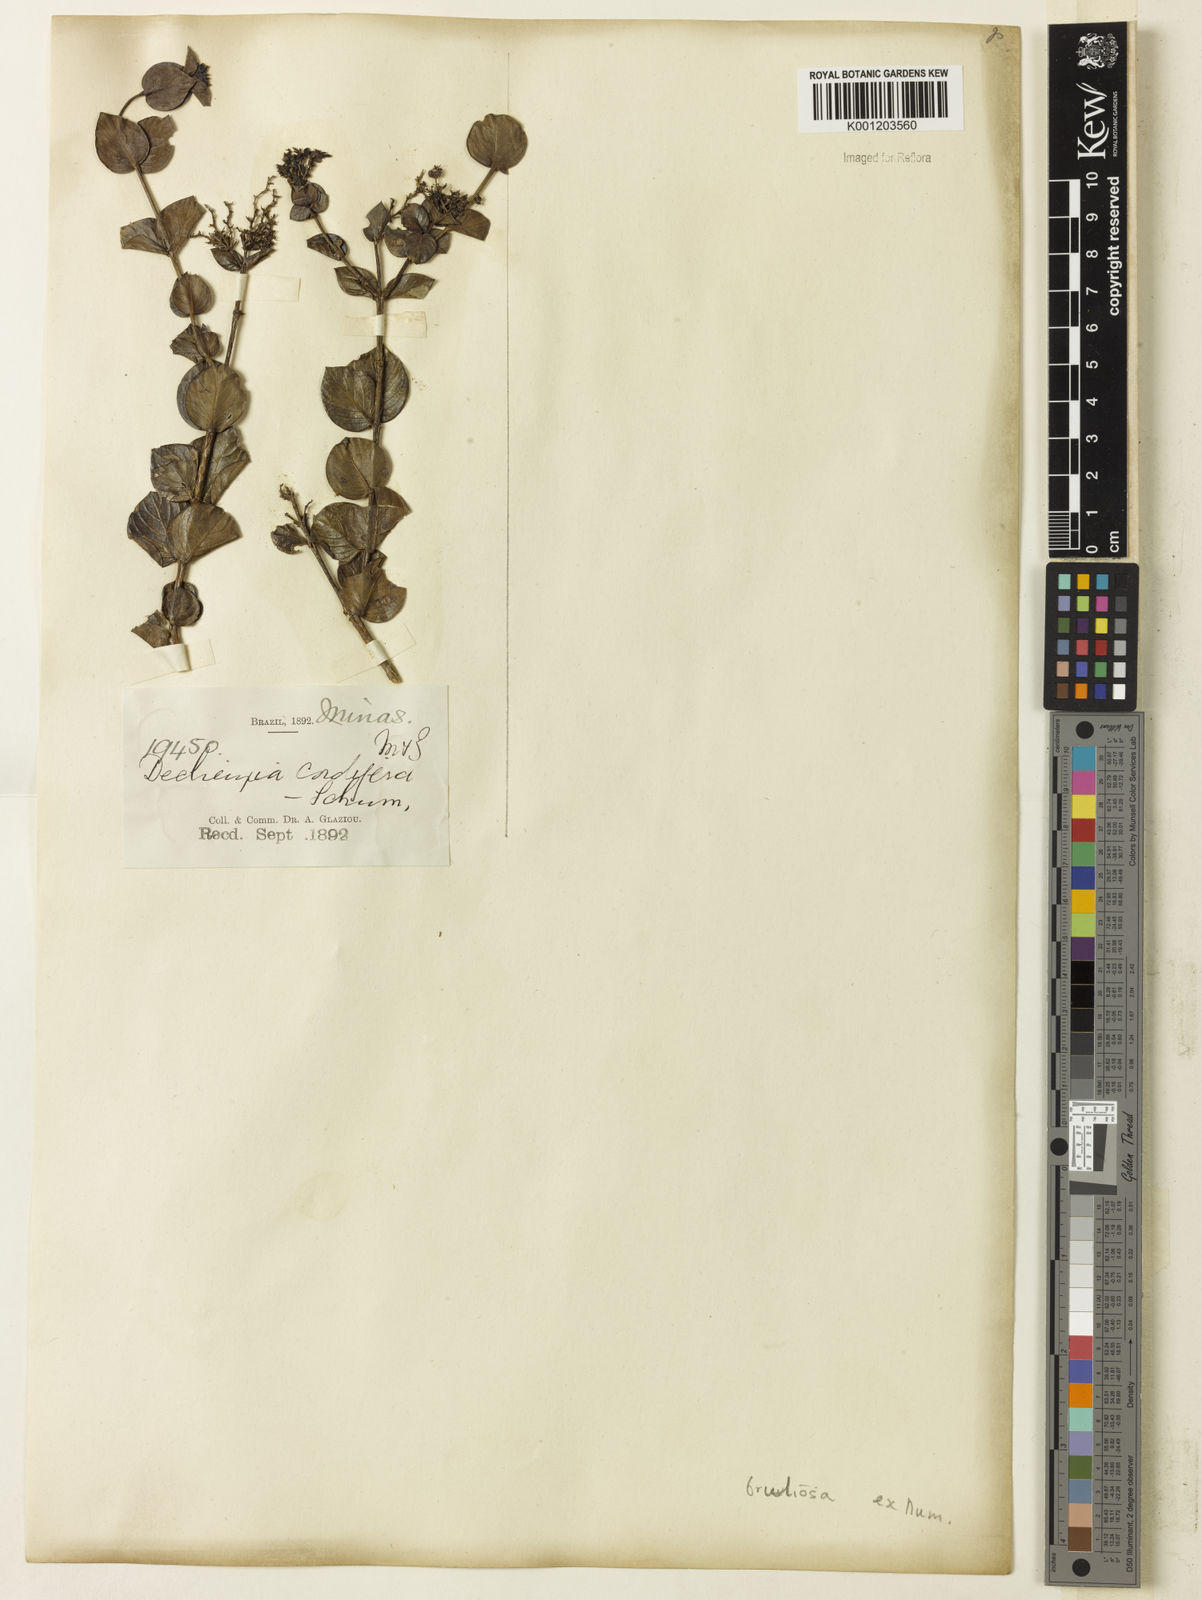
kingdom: Plantae
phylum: Tracheophyta
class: Magnoliopsida
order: Gentianales
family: Rubiaceae
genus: Declieuxia
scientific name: Declieuxia fruticosa
